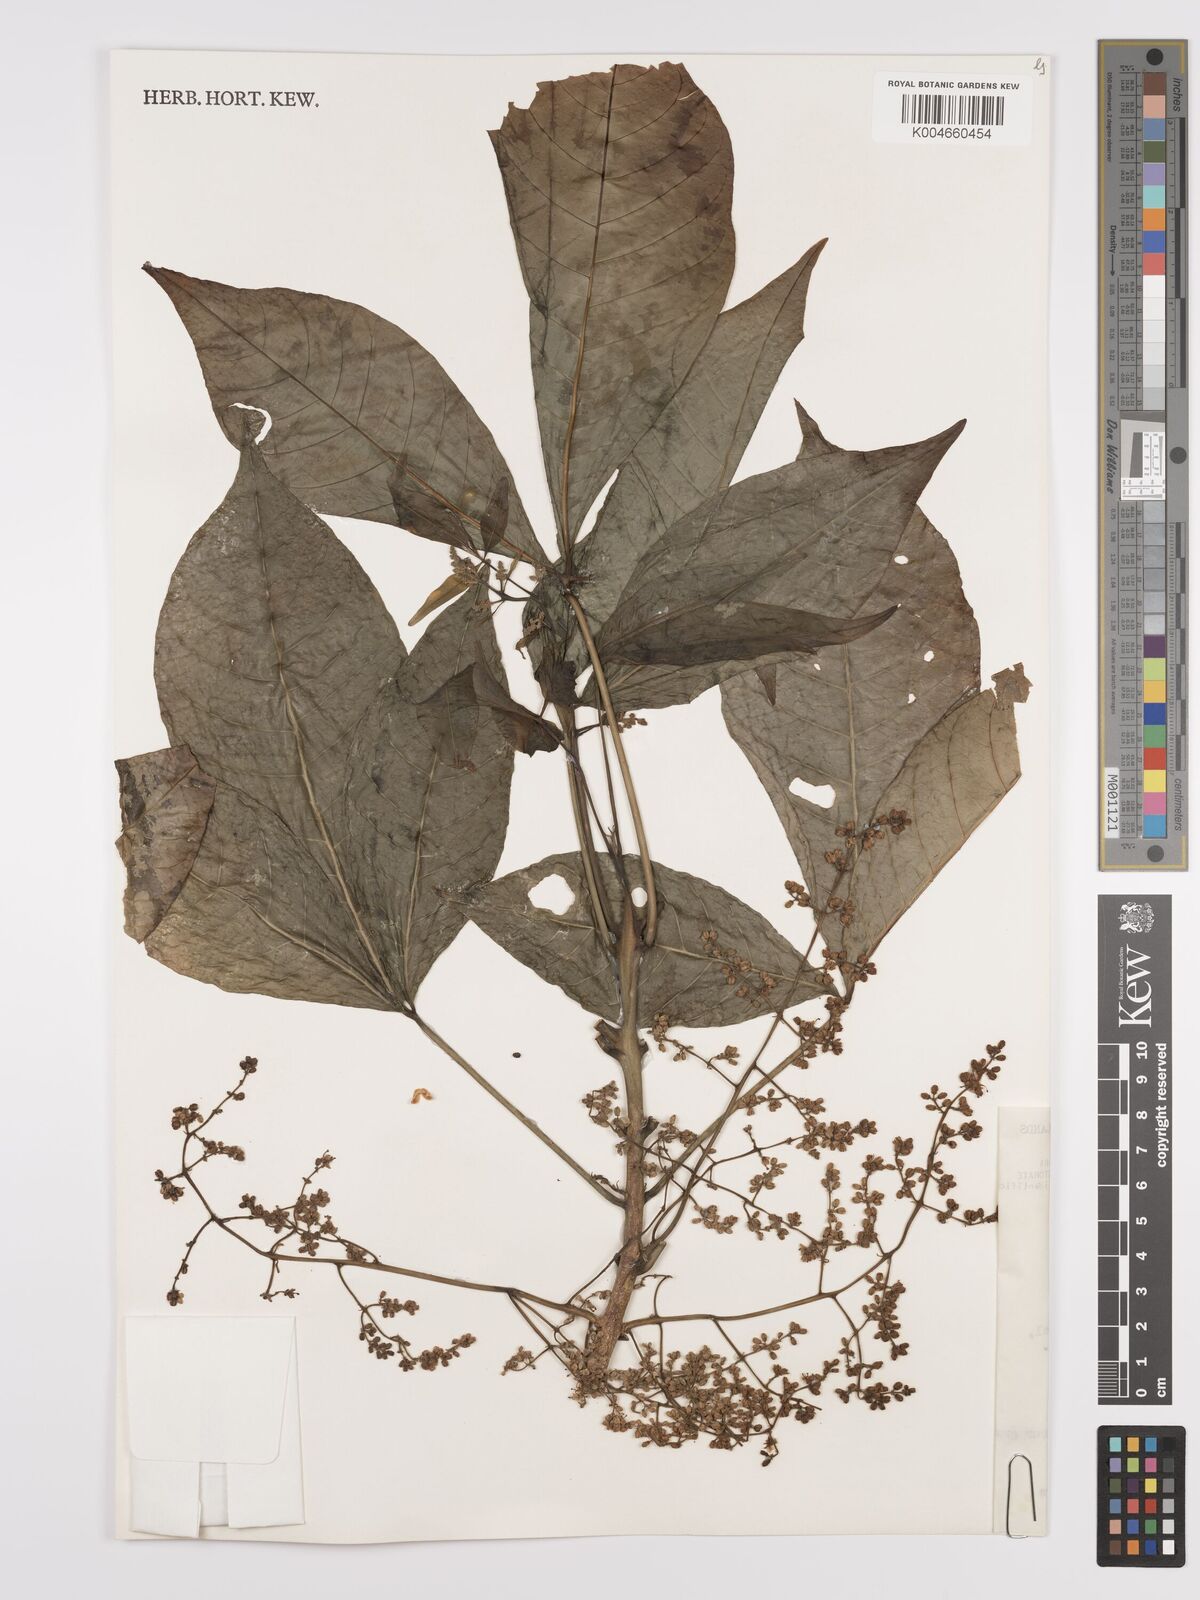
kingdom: Plantae
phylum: Tracheophyta
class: Magnoliopsida
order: Sapindales
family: Rutaceae
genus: Euodia
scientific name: Euodia
